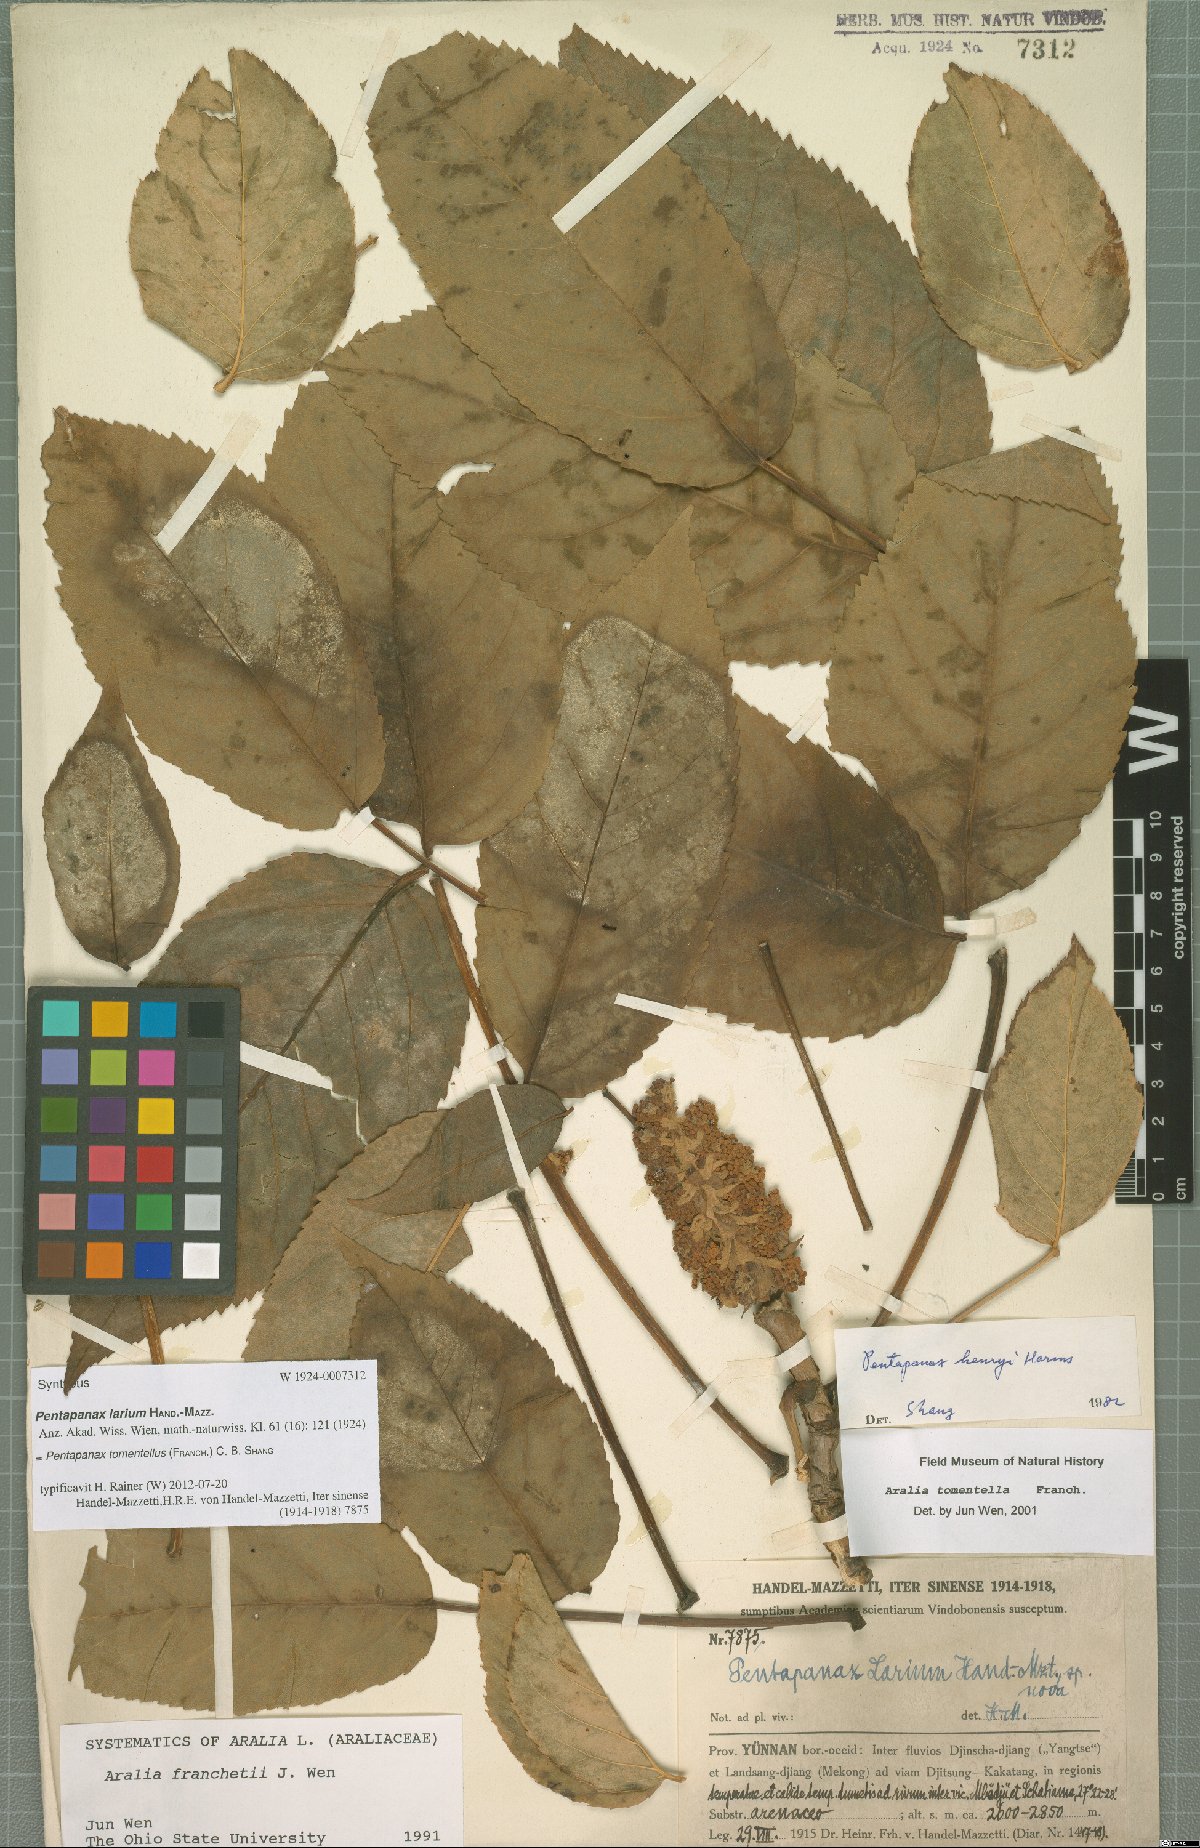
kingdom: Plantae
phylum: Tracheophyta
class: Magnoliopsida
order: Apiales
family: Araliaceae
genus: Aralia
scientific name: Aralia tomentella
